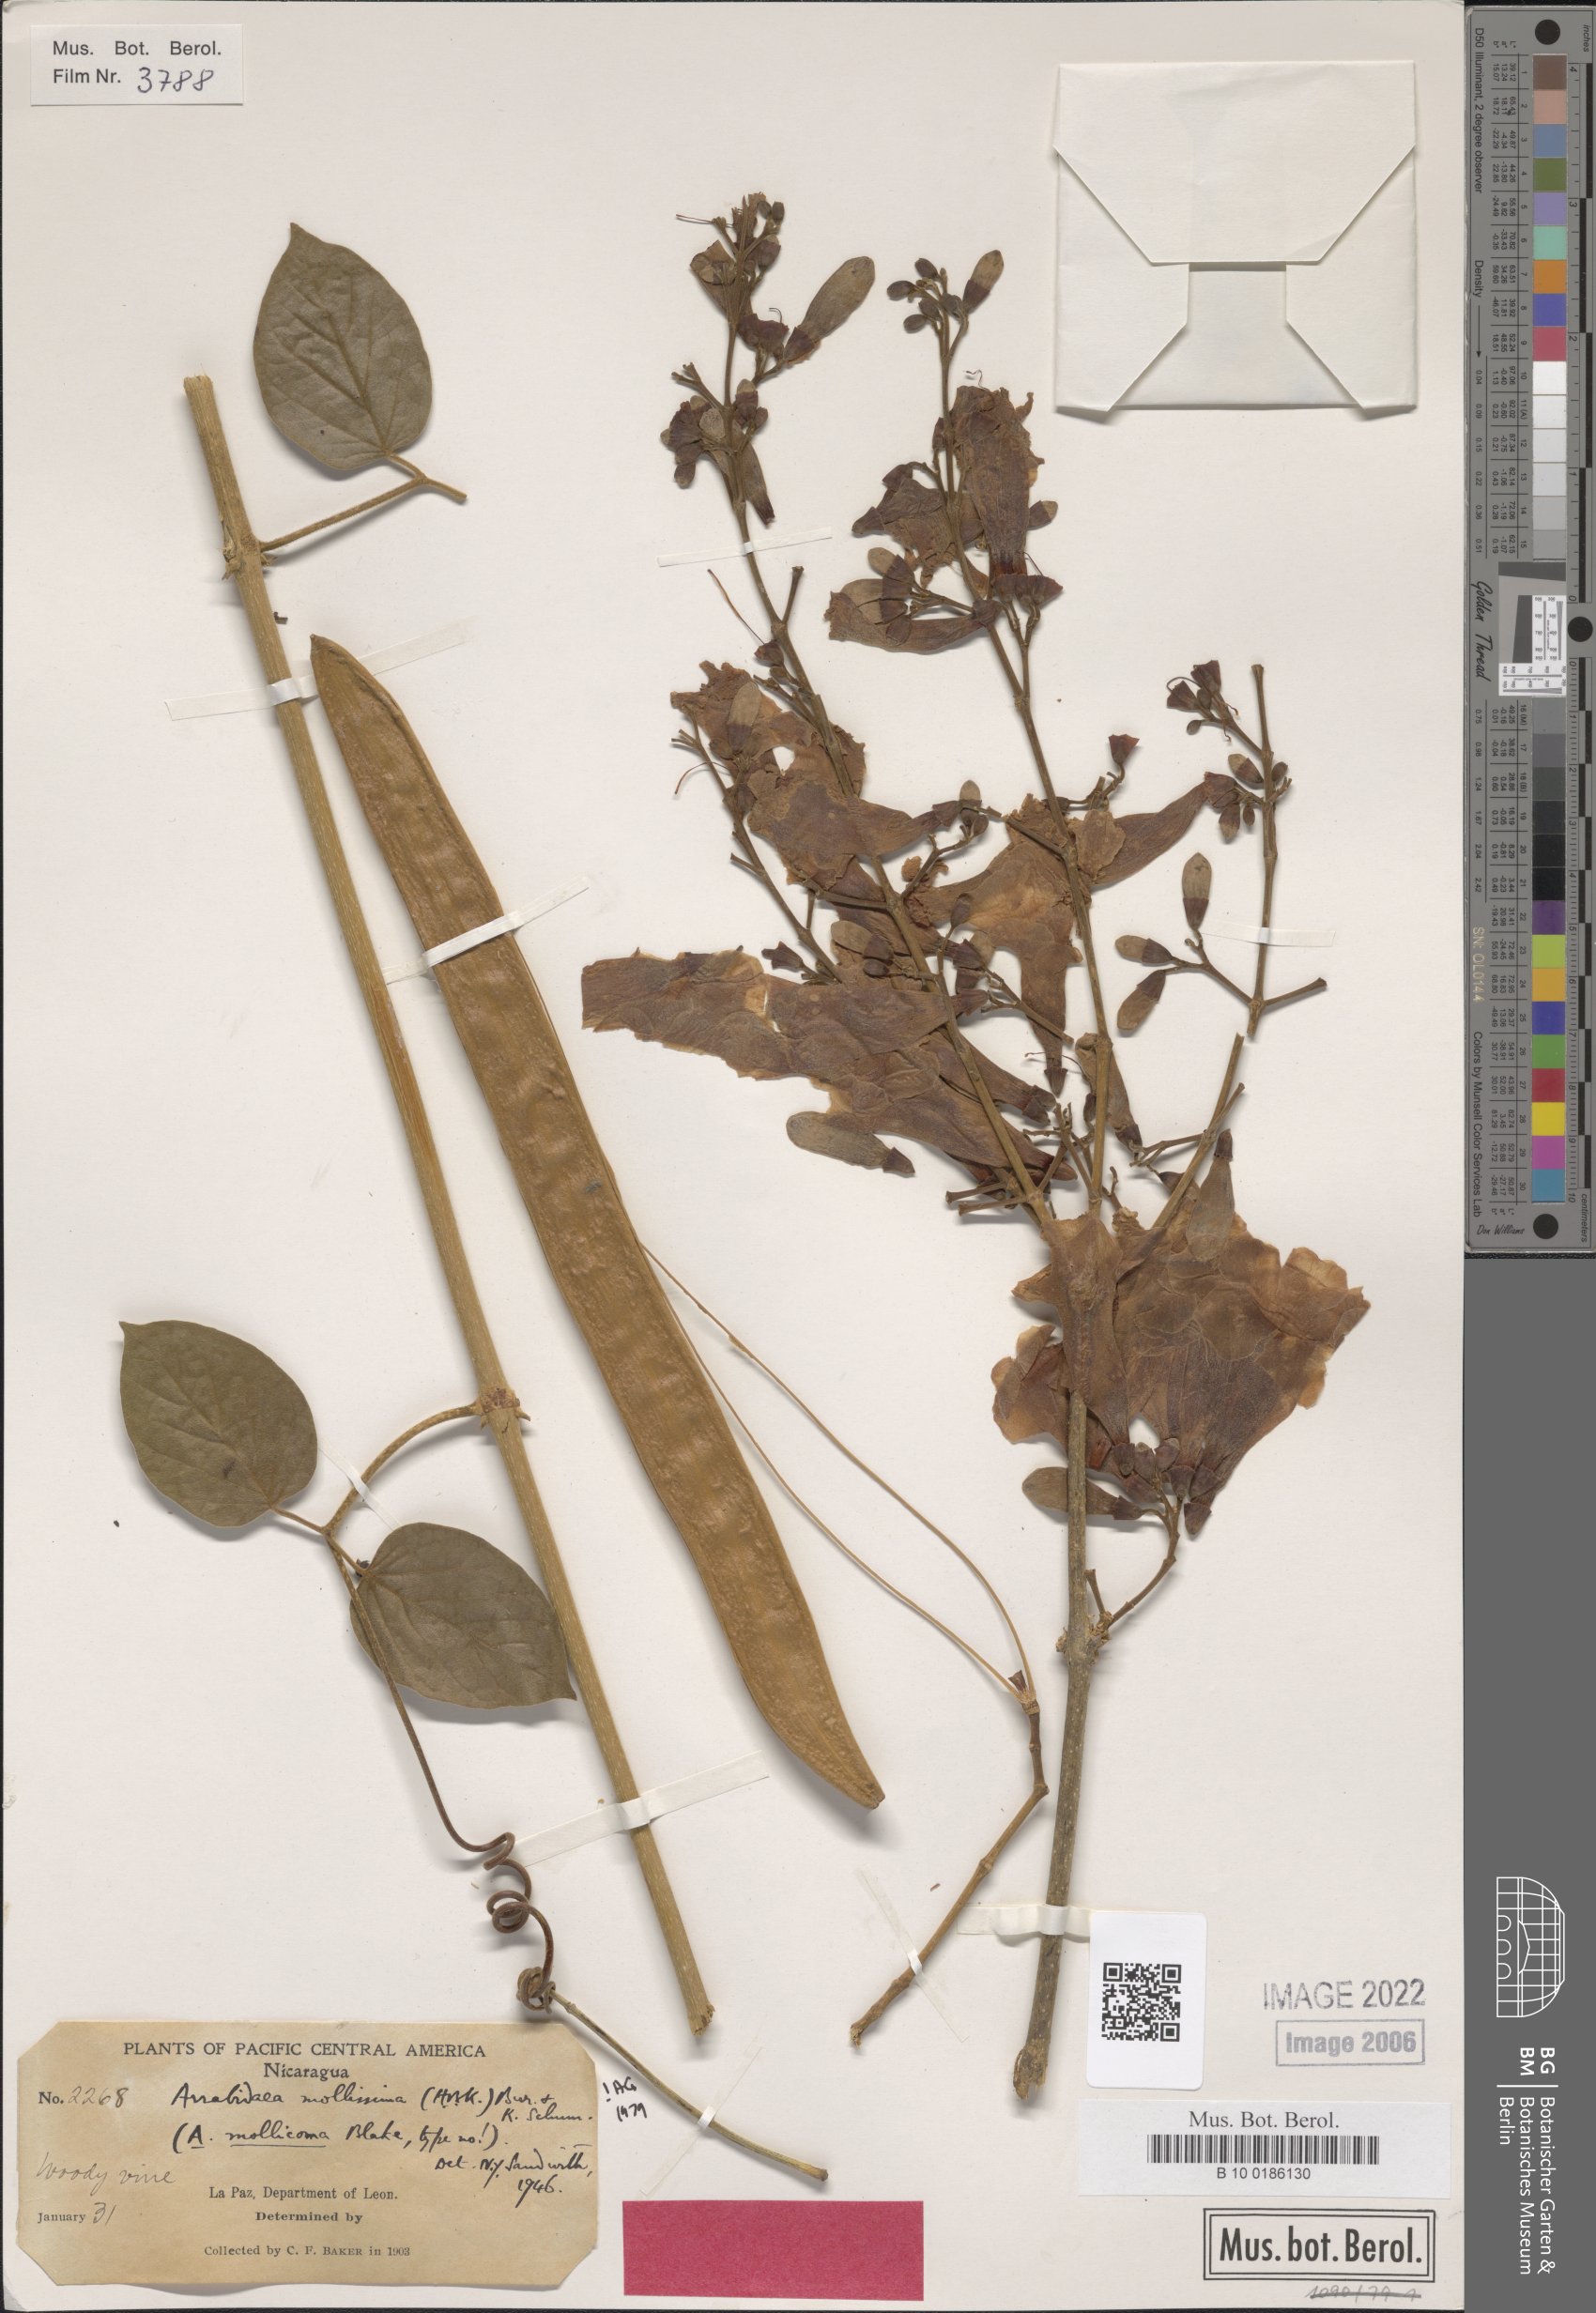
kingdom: Plantae
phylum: Tracheophyta
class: Magnoliopsida
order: Lamiales
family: Bignoniaceae
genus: Fridericia
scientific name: Fridericia mollissima
